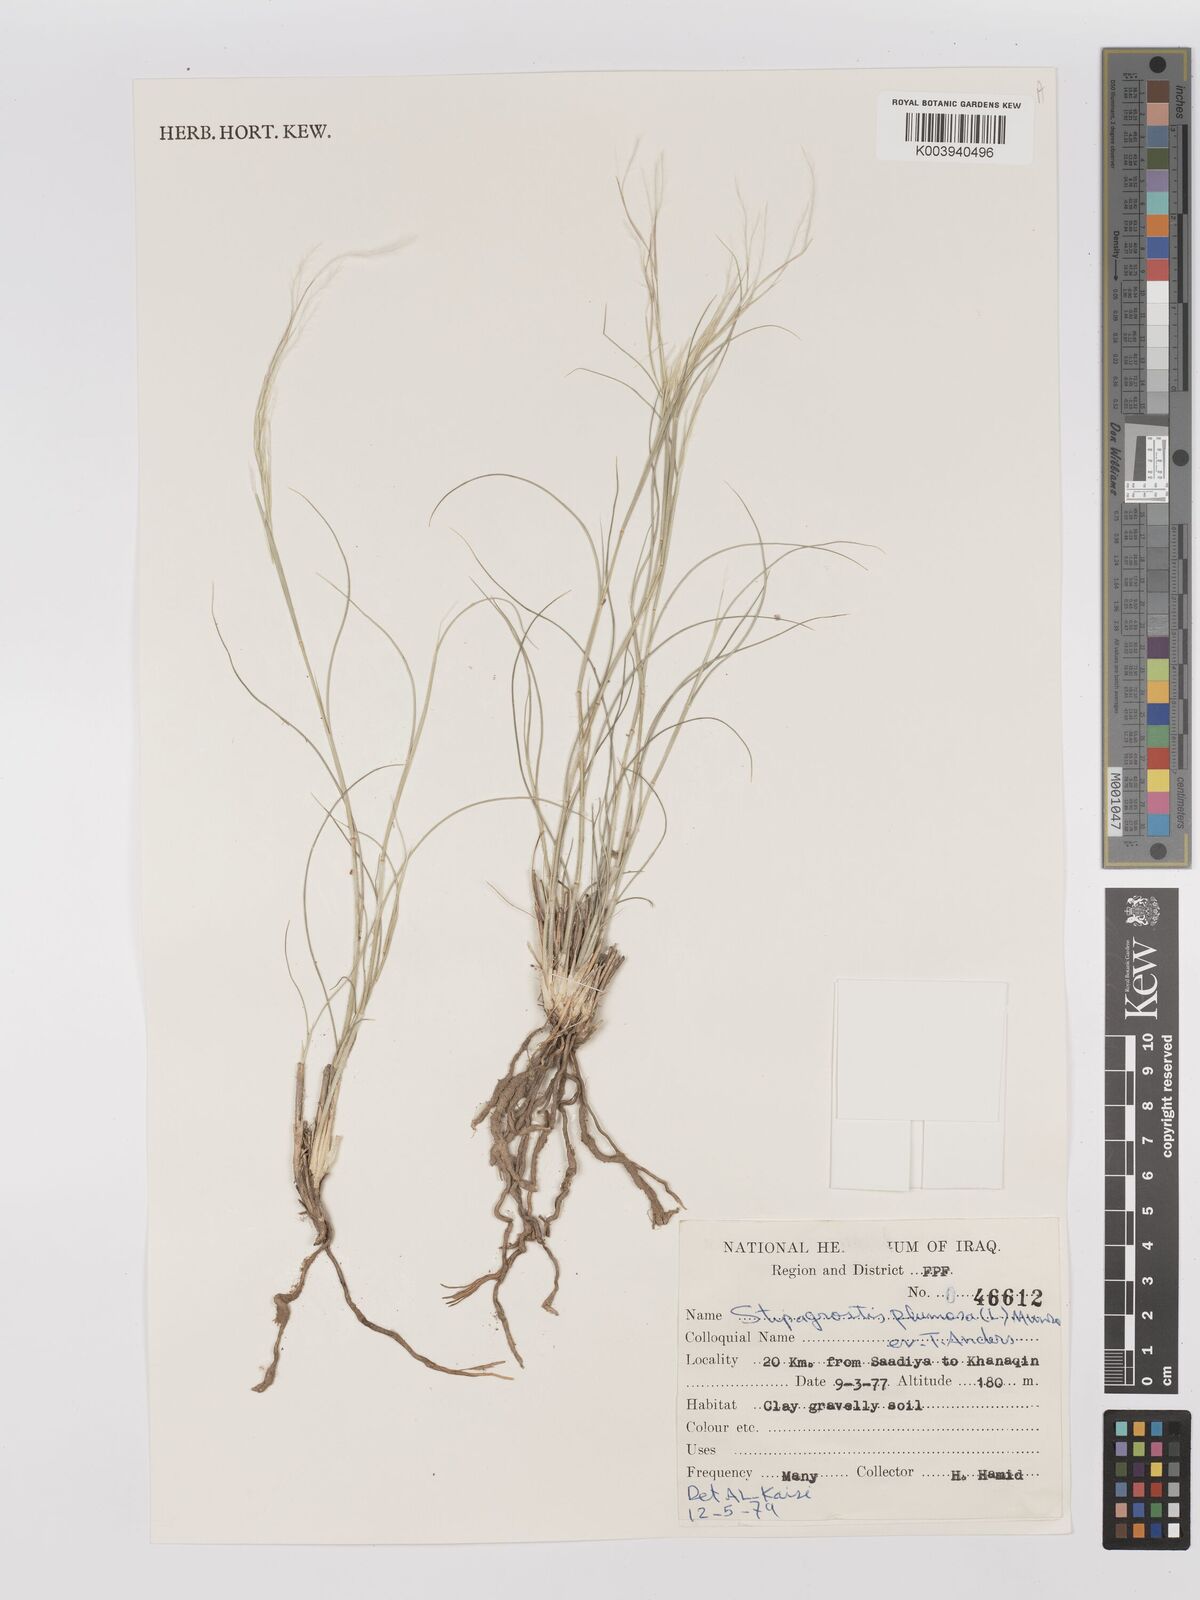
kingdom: Plantae
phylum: Tracheophyta
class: Liliopsida
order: Poales
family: Poaceae
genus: Stipagrostis
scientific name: Stipagrostis plumosa
